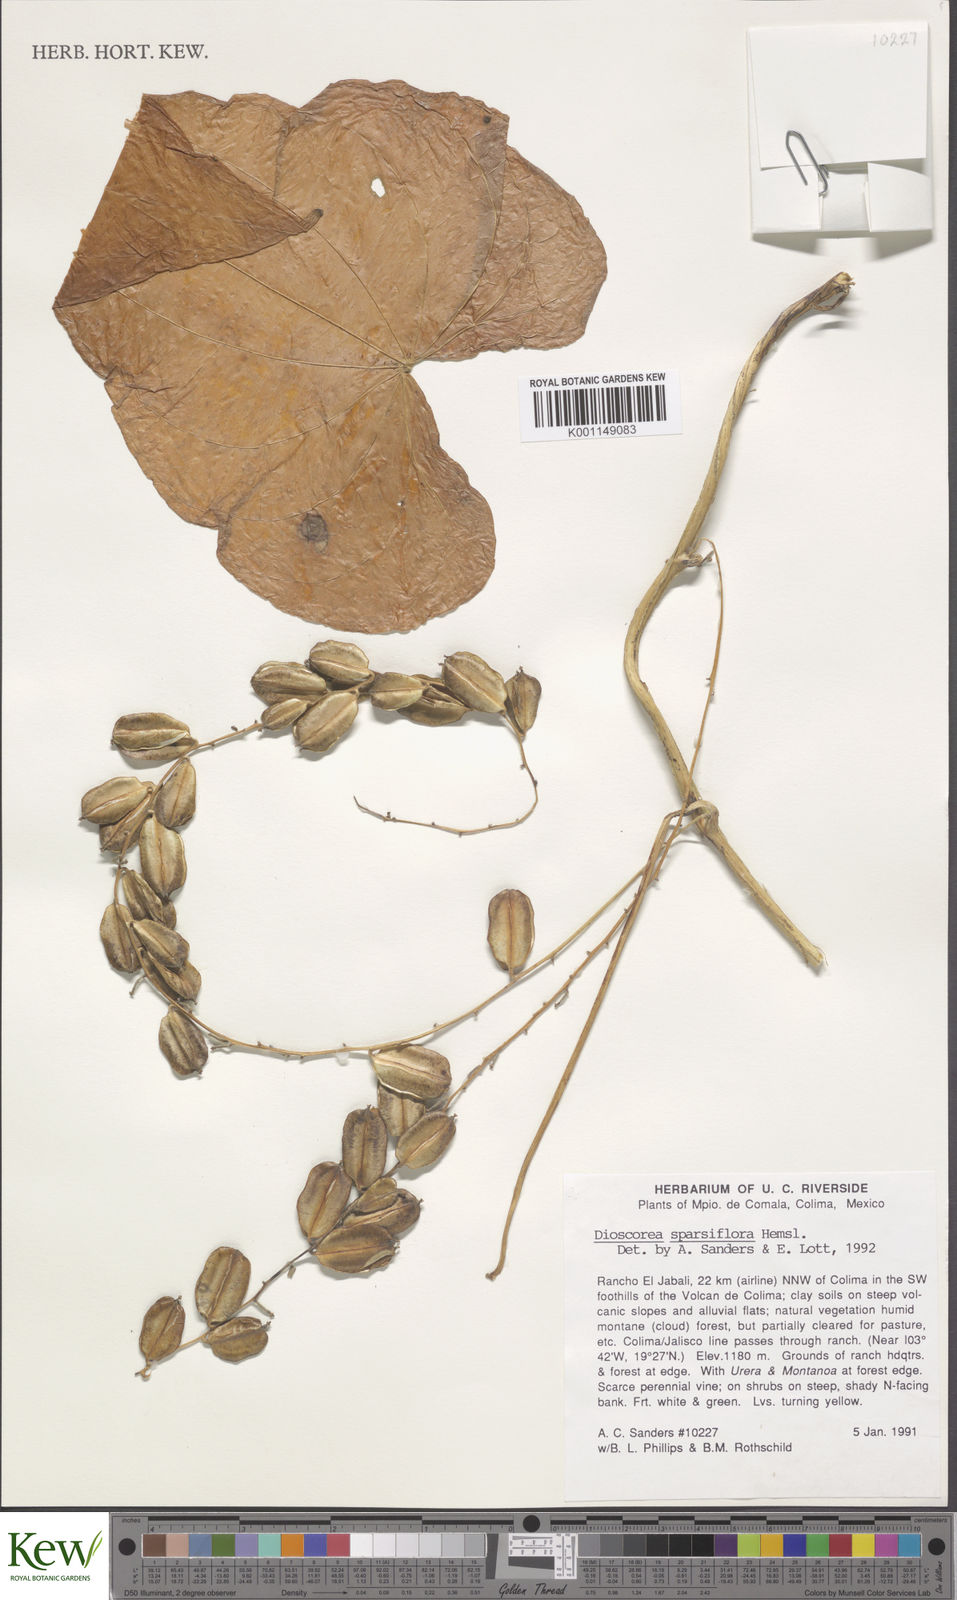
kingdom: Plantae
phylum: Tracheophyta
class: Liliopsida
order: Dioscoreales
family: Dioscoreaceae
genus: Dioscorea
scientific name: Dioscorea remotiflora
